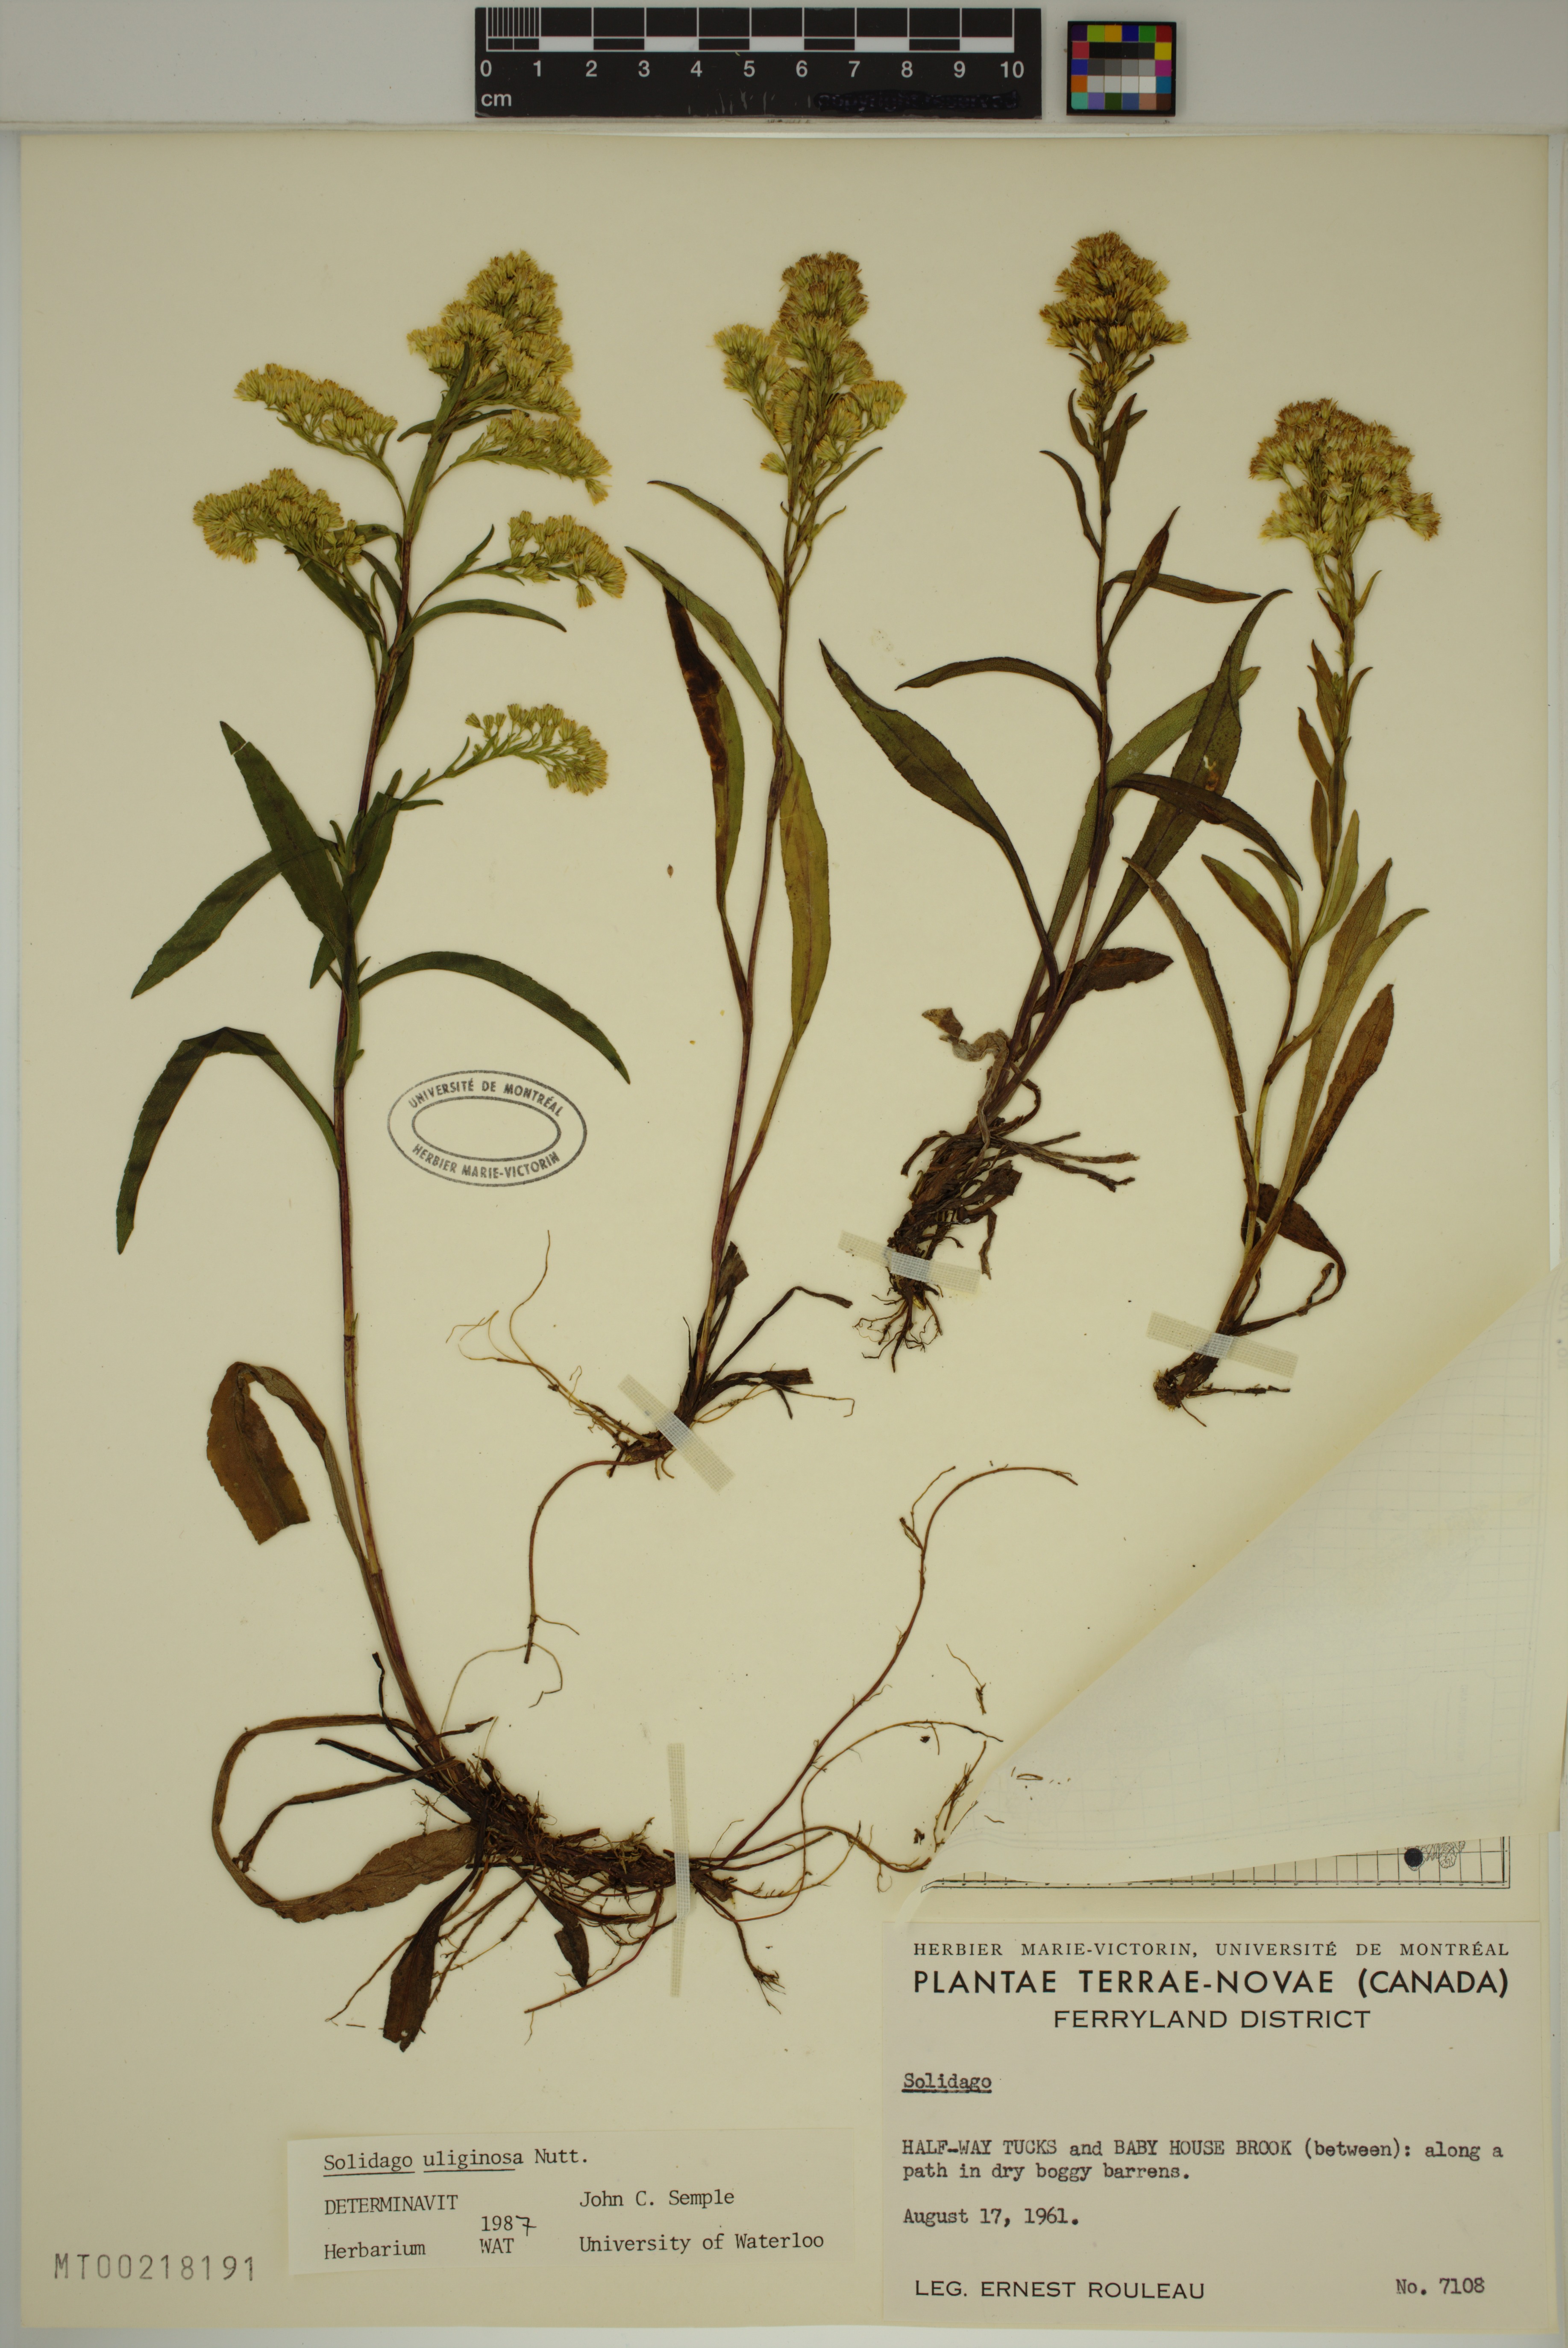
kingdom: Plantae
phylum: Tracheophyta
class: Magnoliopsida
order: Asterales
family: Asteraceae
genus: Solidago
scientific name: Solidago uliginosa
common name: Bog goldenrod
